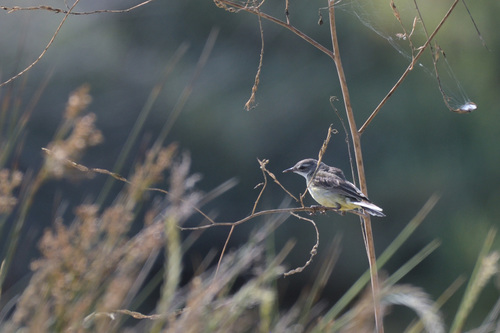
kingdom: Animalia
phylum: Chordata
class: Aves
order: Passeriformes
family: Motacillidae
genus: Motacilla
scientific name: Motacilla flava
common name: Western yellow wagtail
